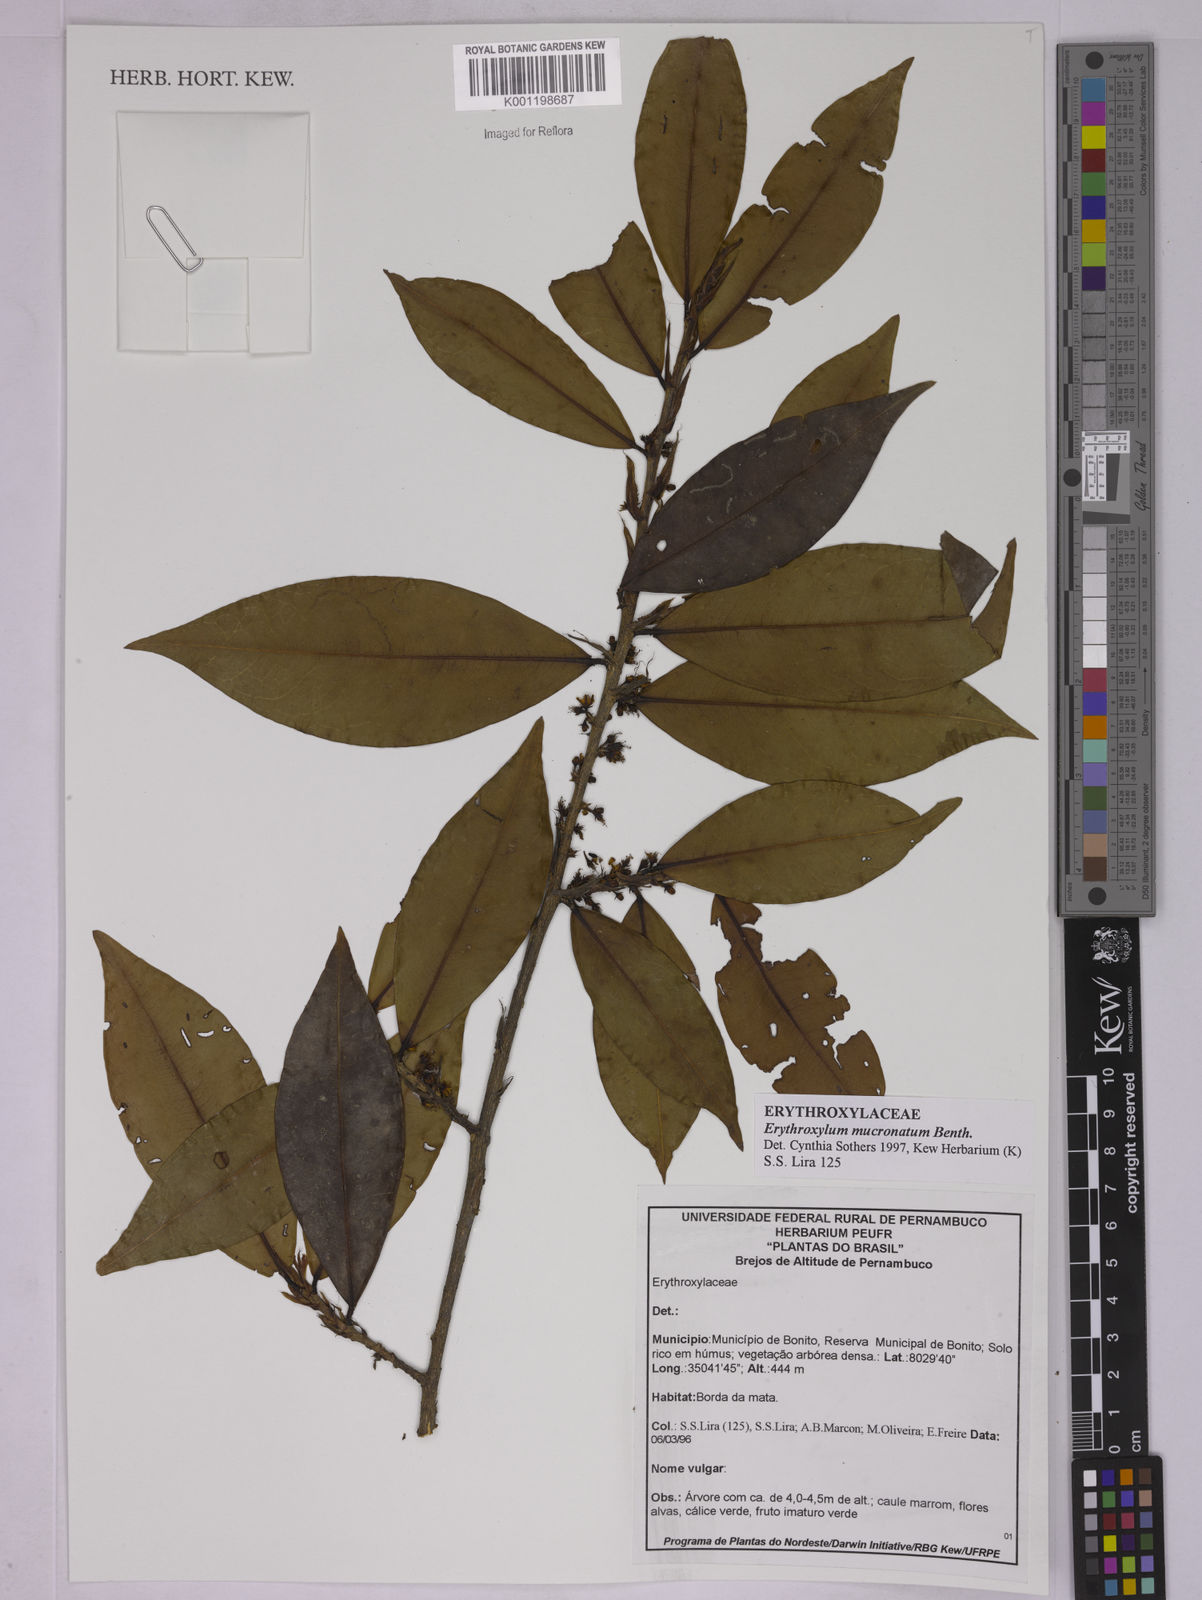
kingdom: Plantae
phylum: Tracheophyta
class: Magnoliopsida
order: Malpighiales
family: Erythroxylaceae
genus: Erythroxylum
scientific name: Erythroxylum mucronatum
